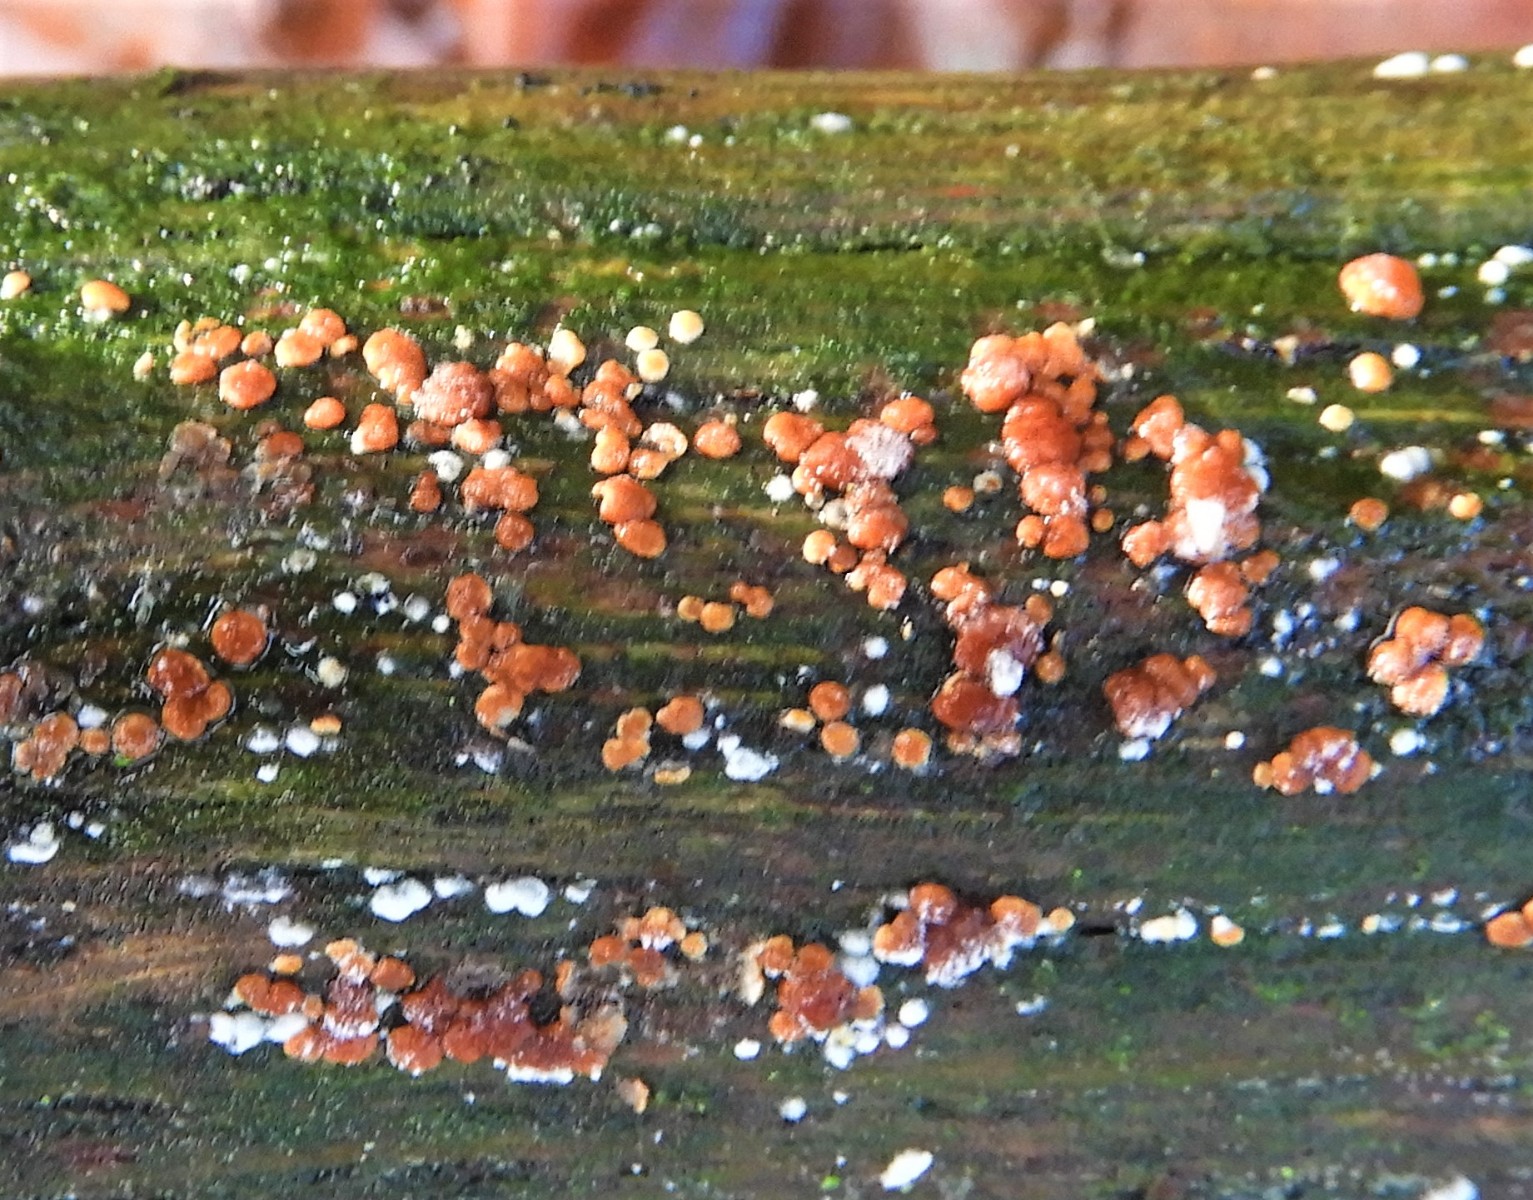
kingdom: Fungi
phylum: Ascomycota
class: Sordariomycetes
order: Hypocreales
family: Hypocreaceae
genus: Trichoderma
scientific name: Trichoderma europaeum
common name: rosabrun kødkerne
